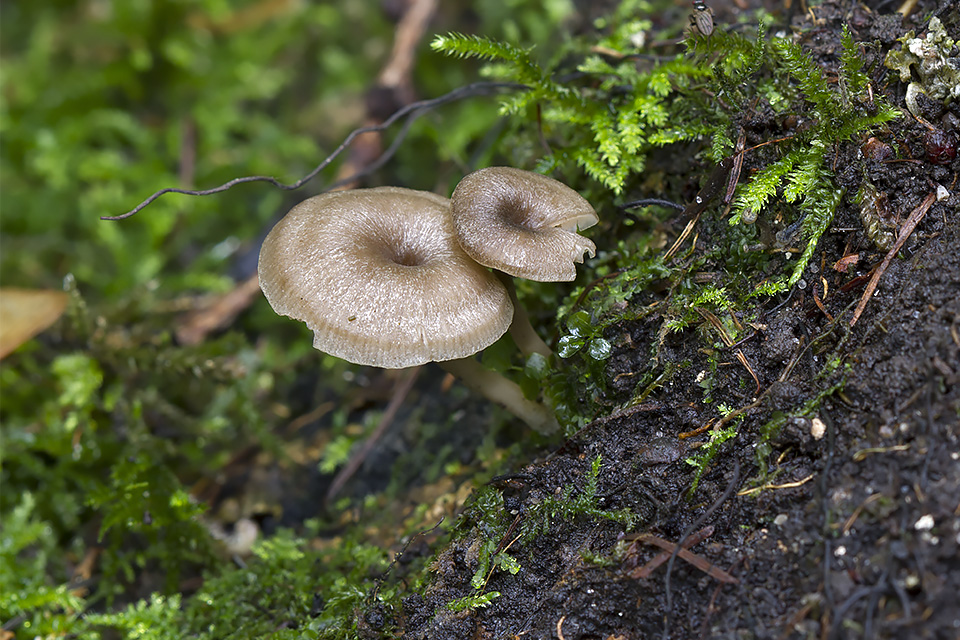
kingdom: Fungi
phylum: Basidiomycota
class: Agaricomycetes
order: Agaricales
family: Entolomataceae
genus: Entoloma
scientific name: Entoloma undatum
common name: bæltet rødblad
